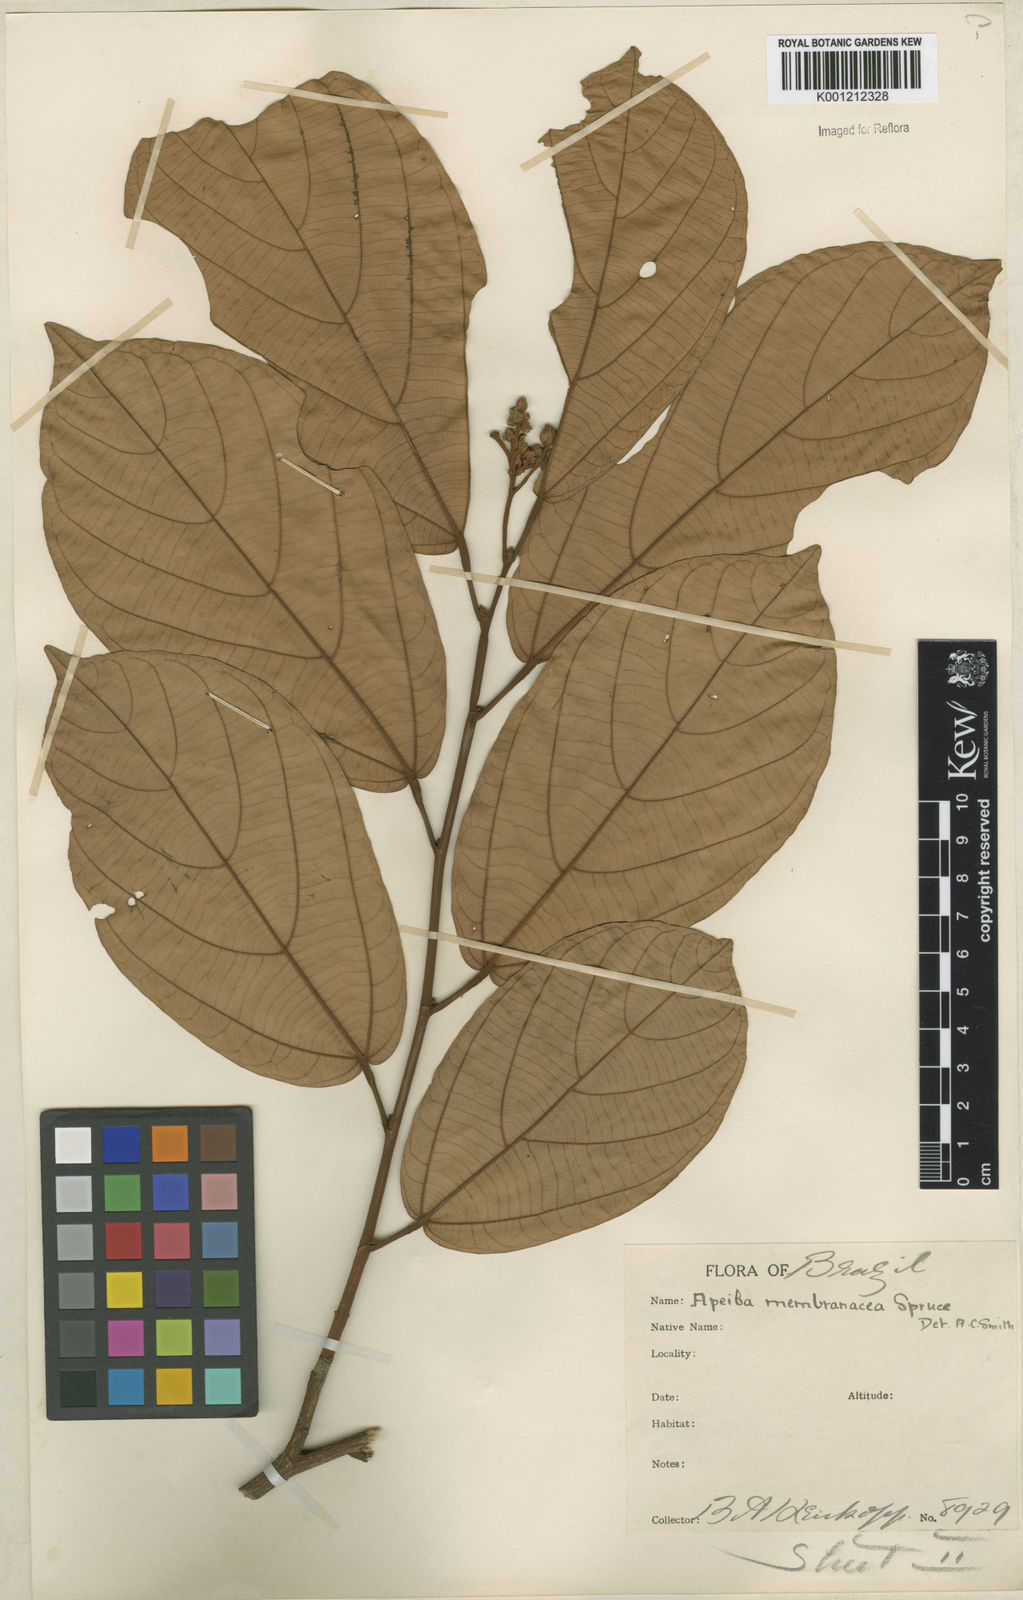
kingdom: Plantae
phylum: Tracheophyta
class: Magnoliopsida
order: Malvales
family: Malvaceae
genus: Apeiba
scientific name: Apeiba membranacea
